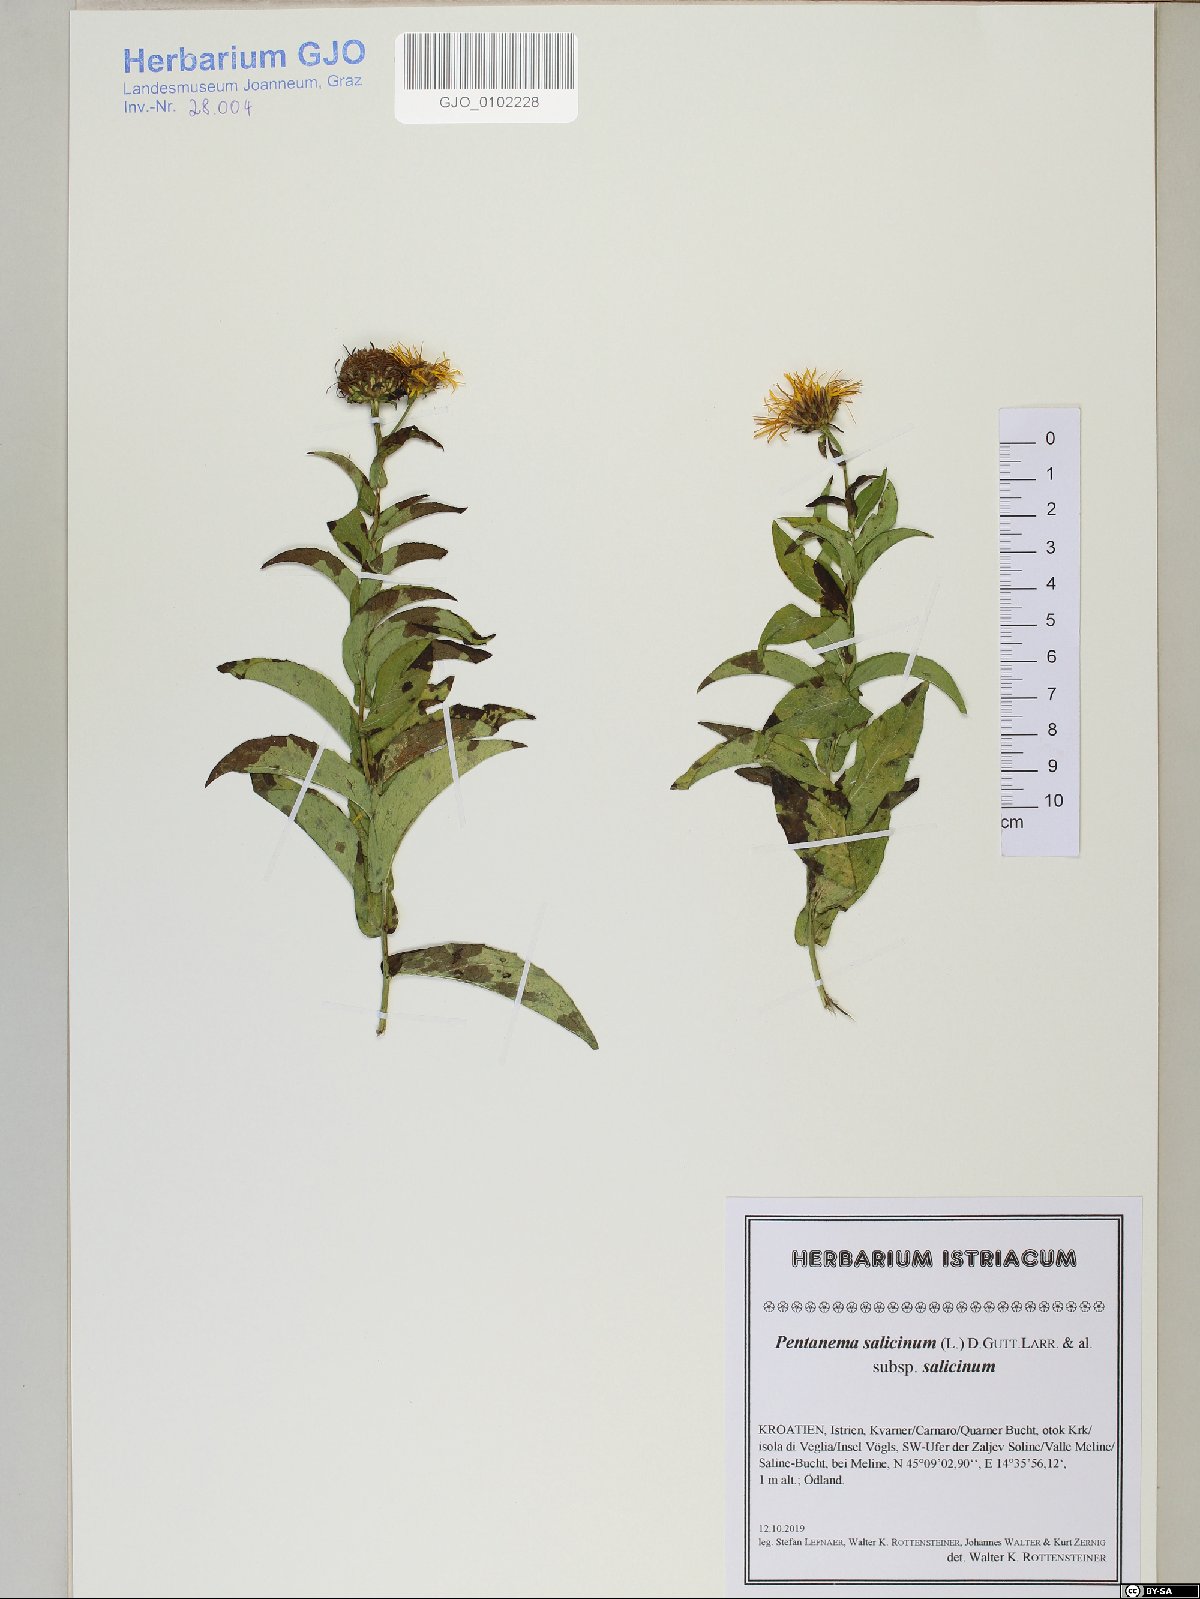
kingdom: Plantae
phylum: Tracheophyta
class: Magnoliopsida
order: Asterales
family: Asteraceae
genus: Pentanema
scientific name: Pentanema salicinum
